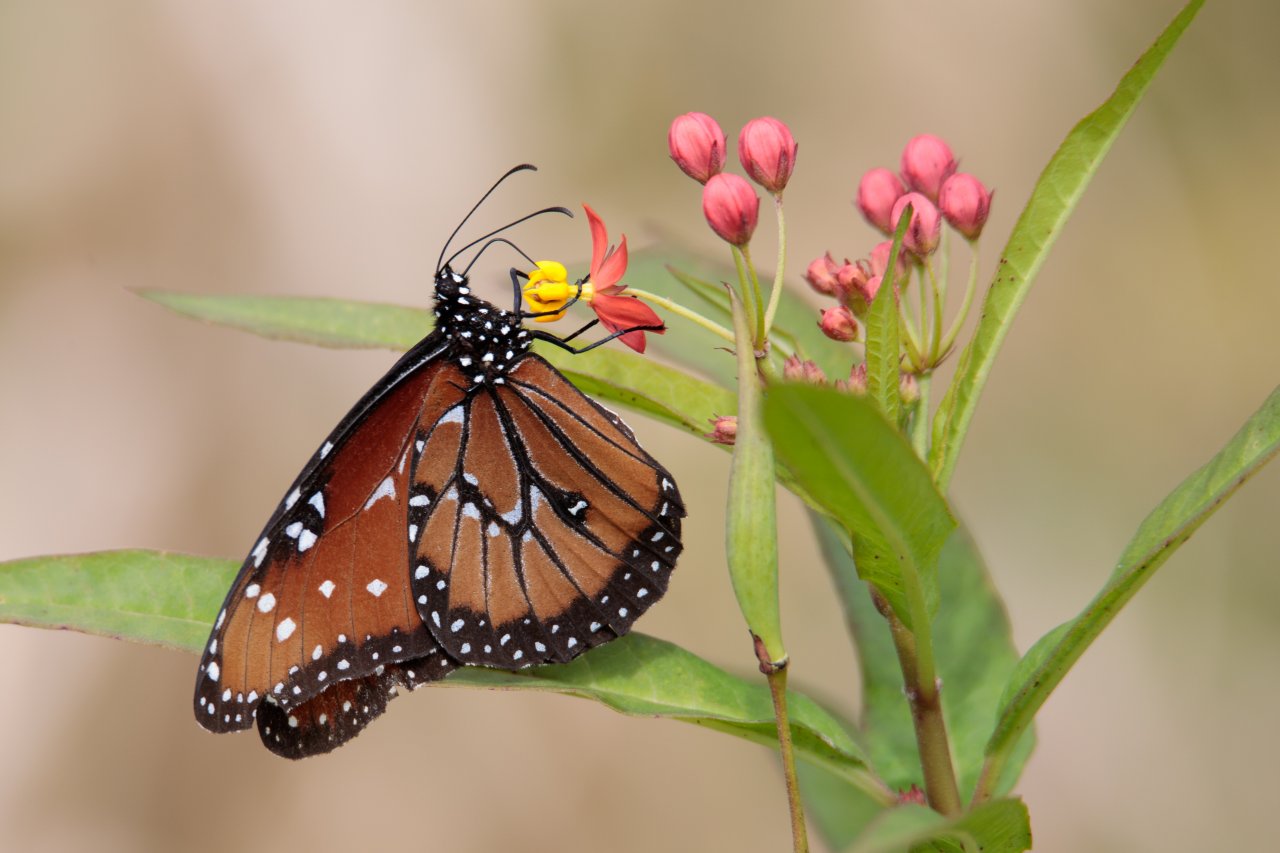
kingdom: Animalia
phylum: Arthropoda
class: Insecta
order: Lepidoptera
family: Nymphalidae
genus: Danaus
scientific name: Danaus gilippus
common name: Queen
